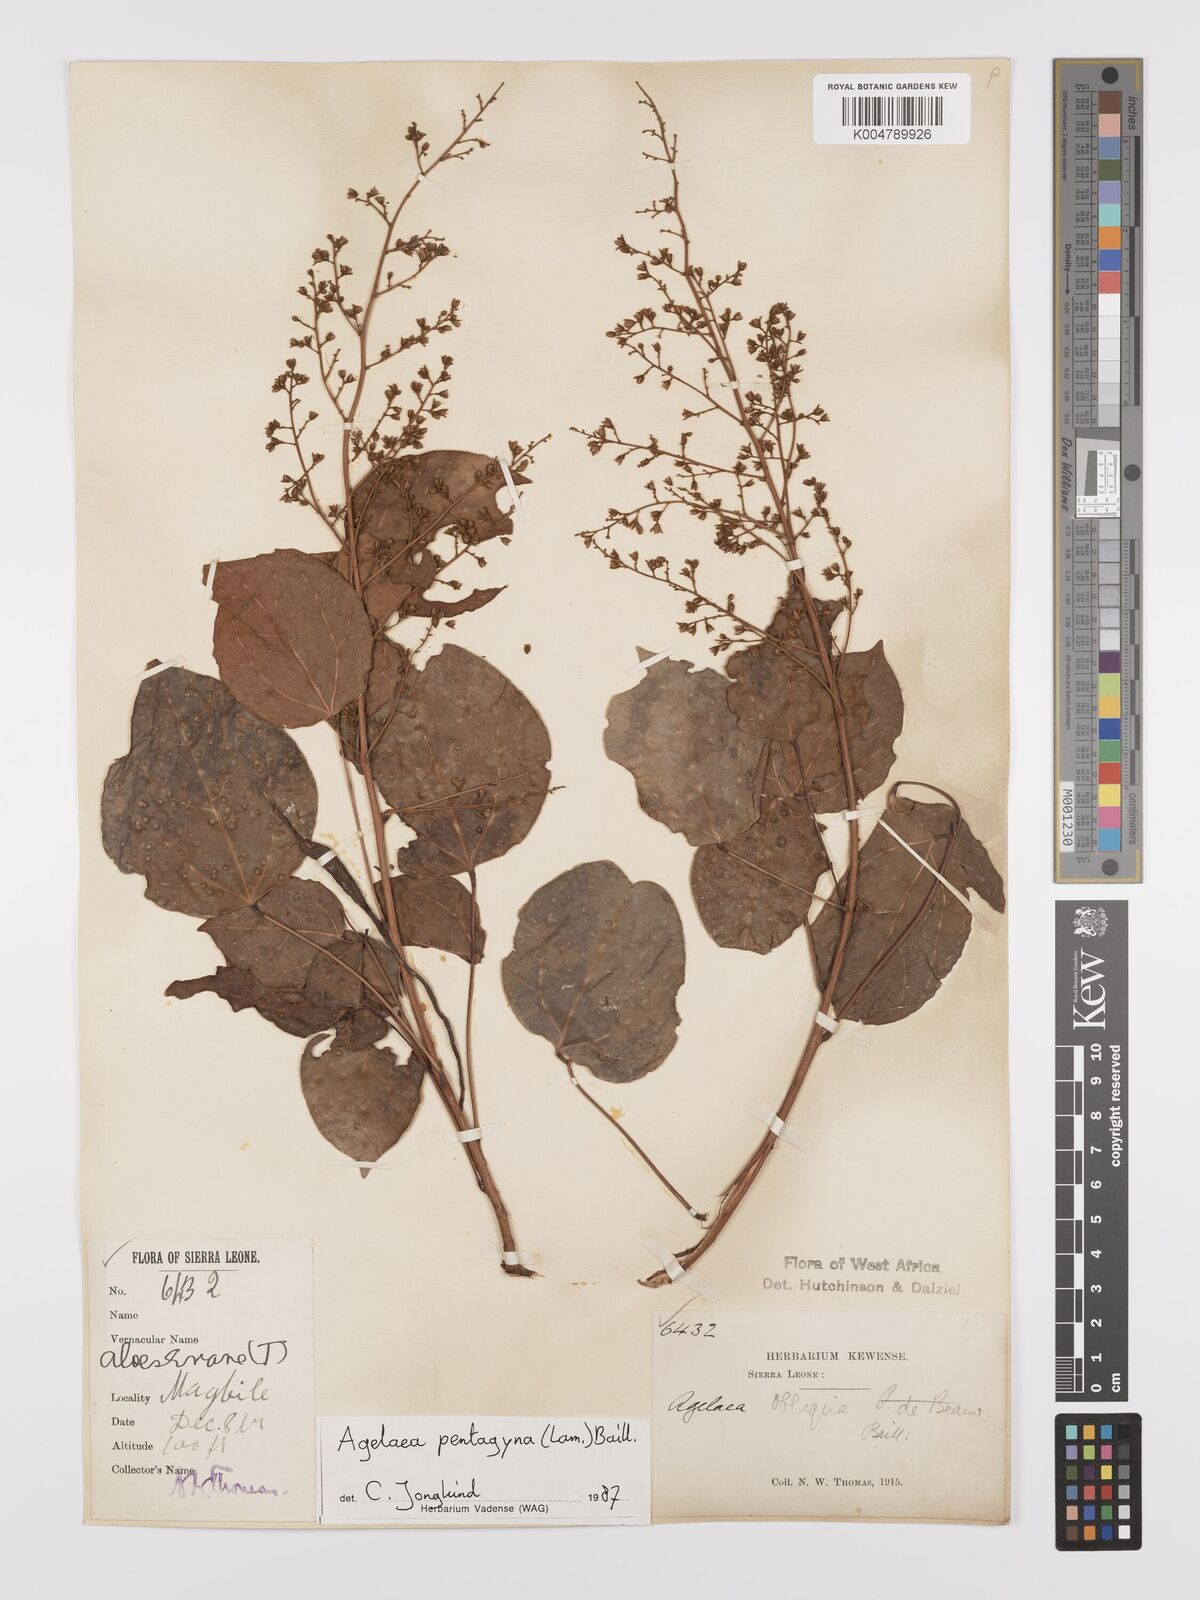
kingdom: Plantae
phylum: Tracheophyta
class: Magnoliopsida
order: Oxalidales
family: Connaraceae
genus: Agelaea
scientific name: Agelaea pentagyna
